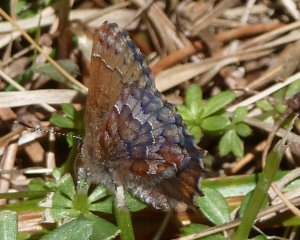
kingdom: Animalia
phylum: Arthropoda
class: Insecta
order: Lepidoptera
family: Lycaenidae
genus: Incisalia
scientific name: Incisalia niphon
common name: Eastern Pine Elfin
